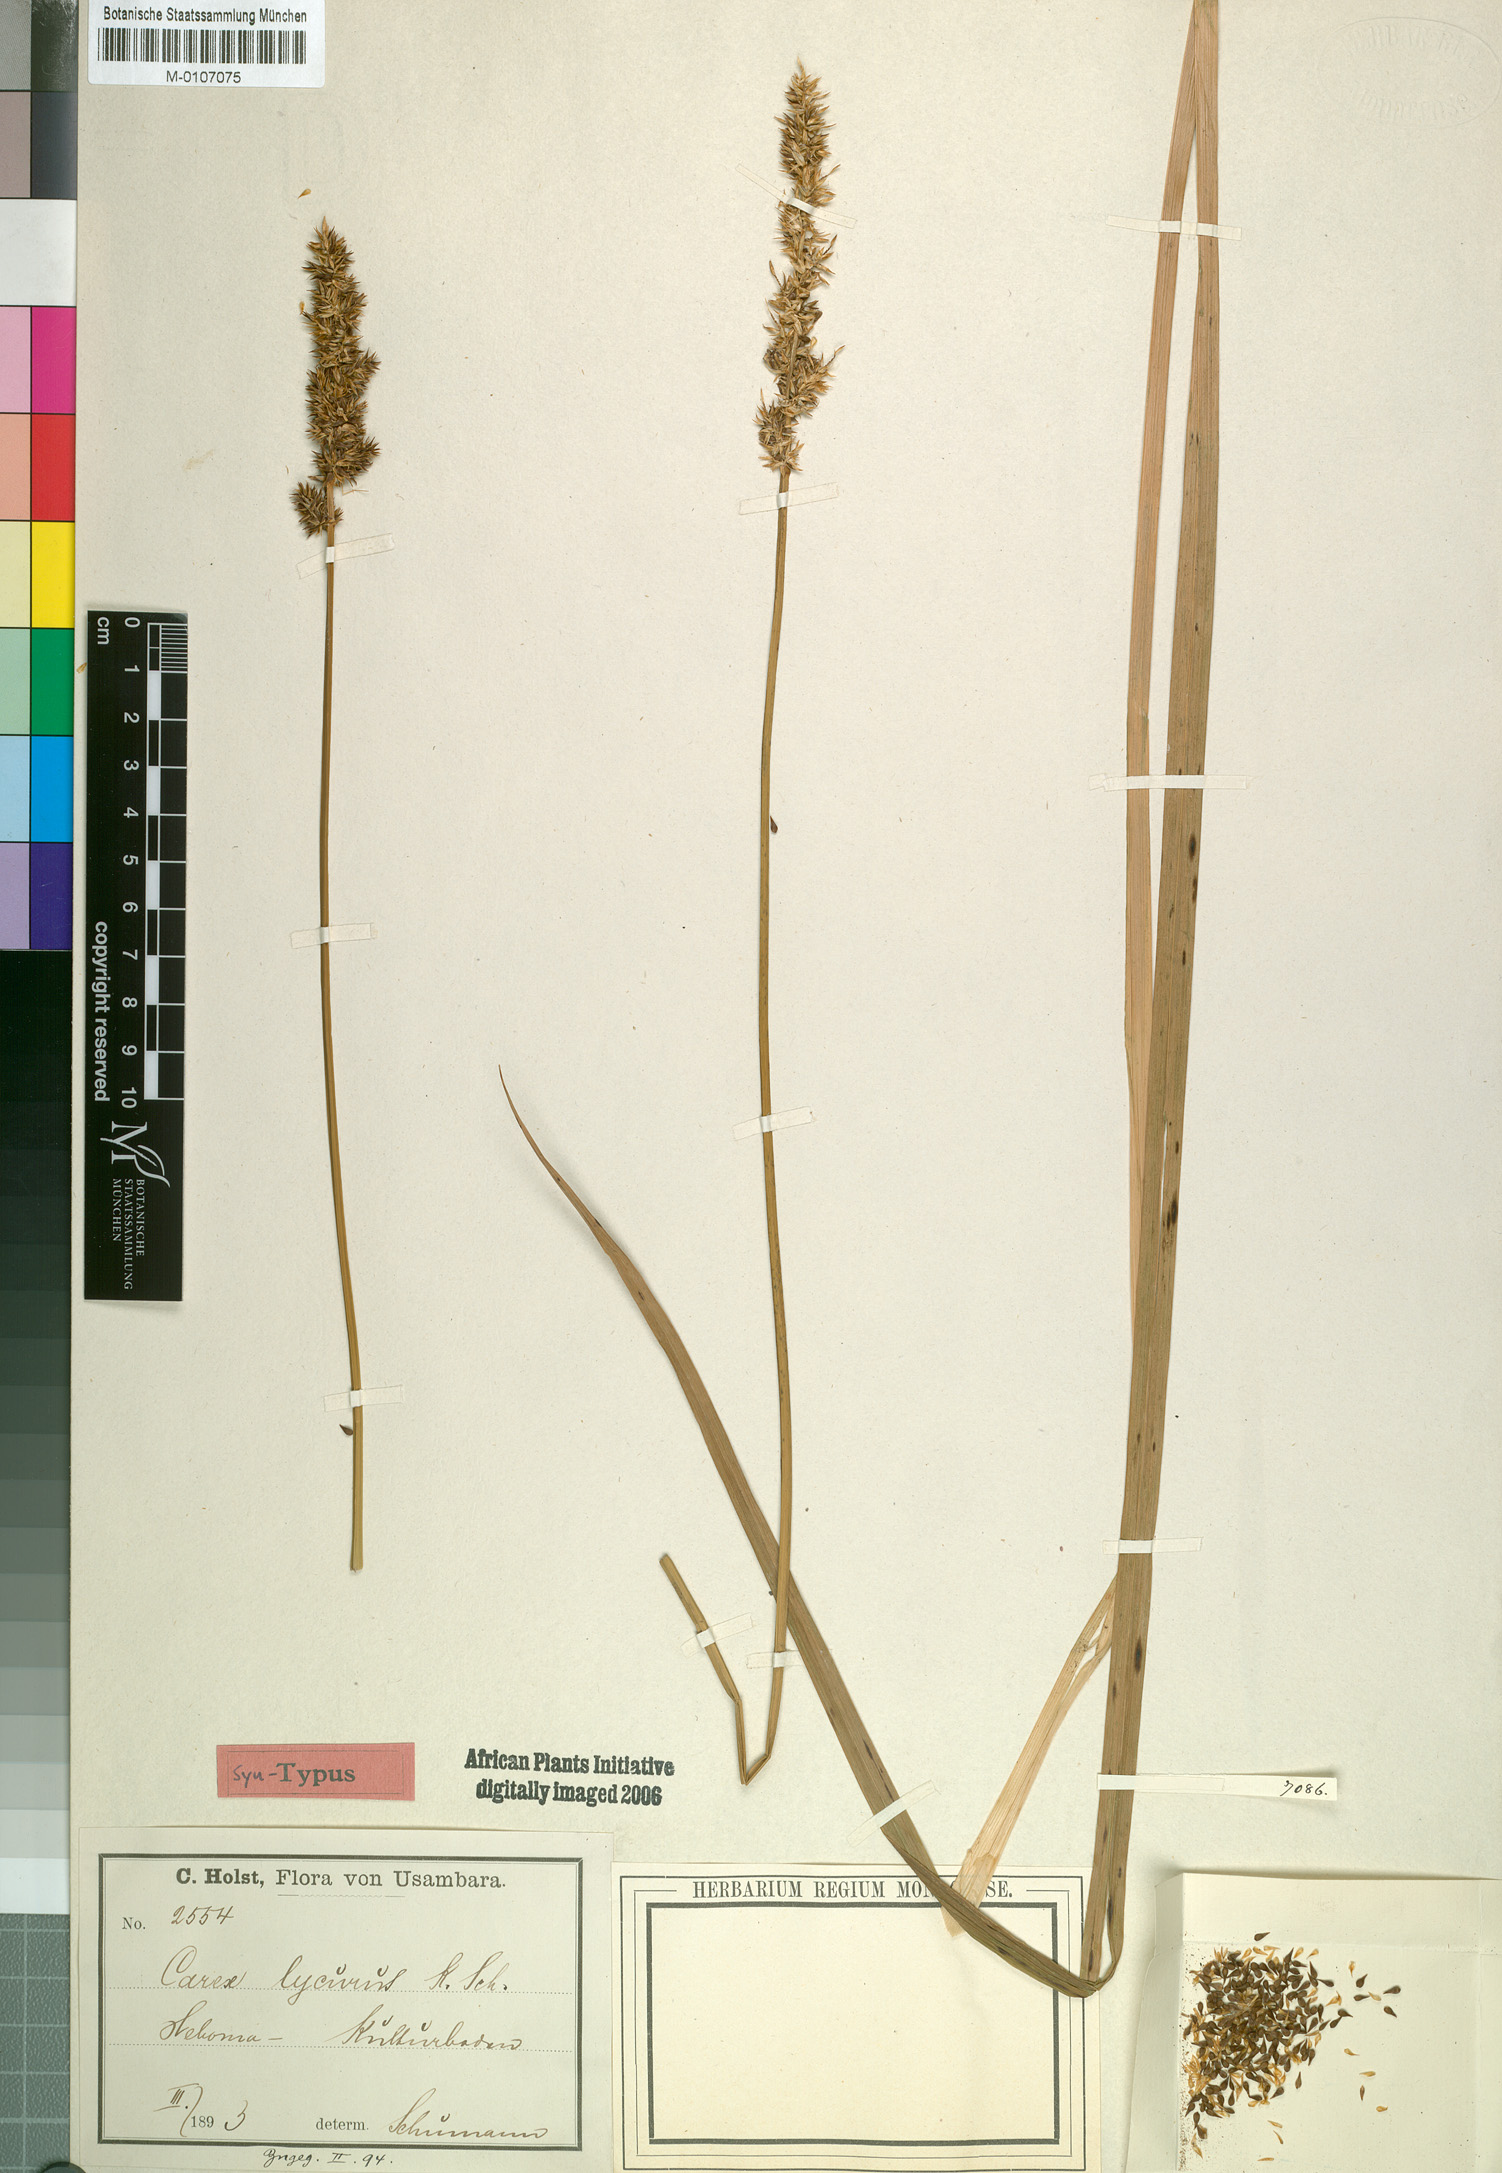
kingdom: Plantae
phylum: Tracheophyta
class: Liliopsida
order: Poales
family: Cyperaceae
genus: Carex
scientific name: Carex lycurus
